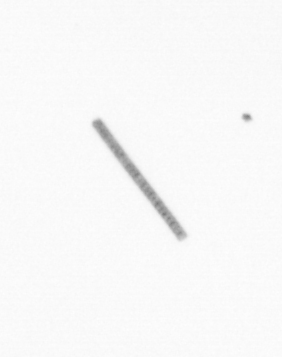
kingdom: Chromista
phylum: Ochrophyta
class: Bacillariophyceae
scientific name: Bacillariophyceae
